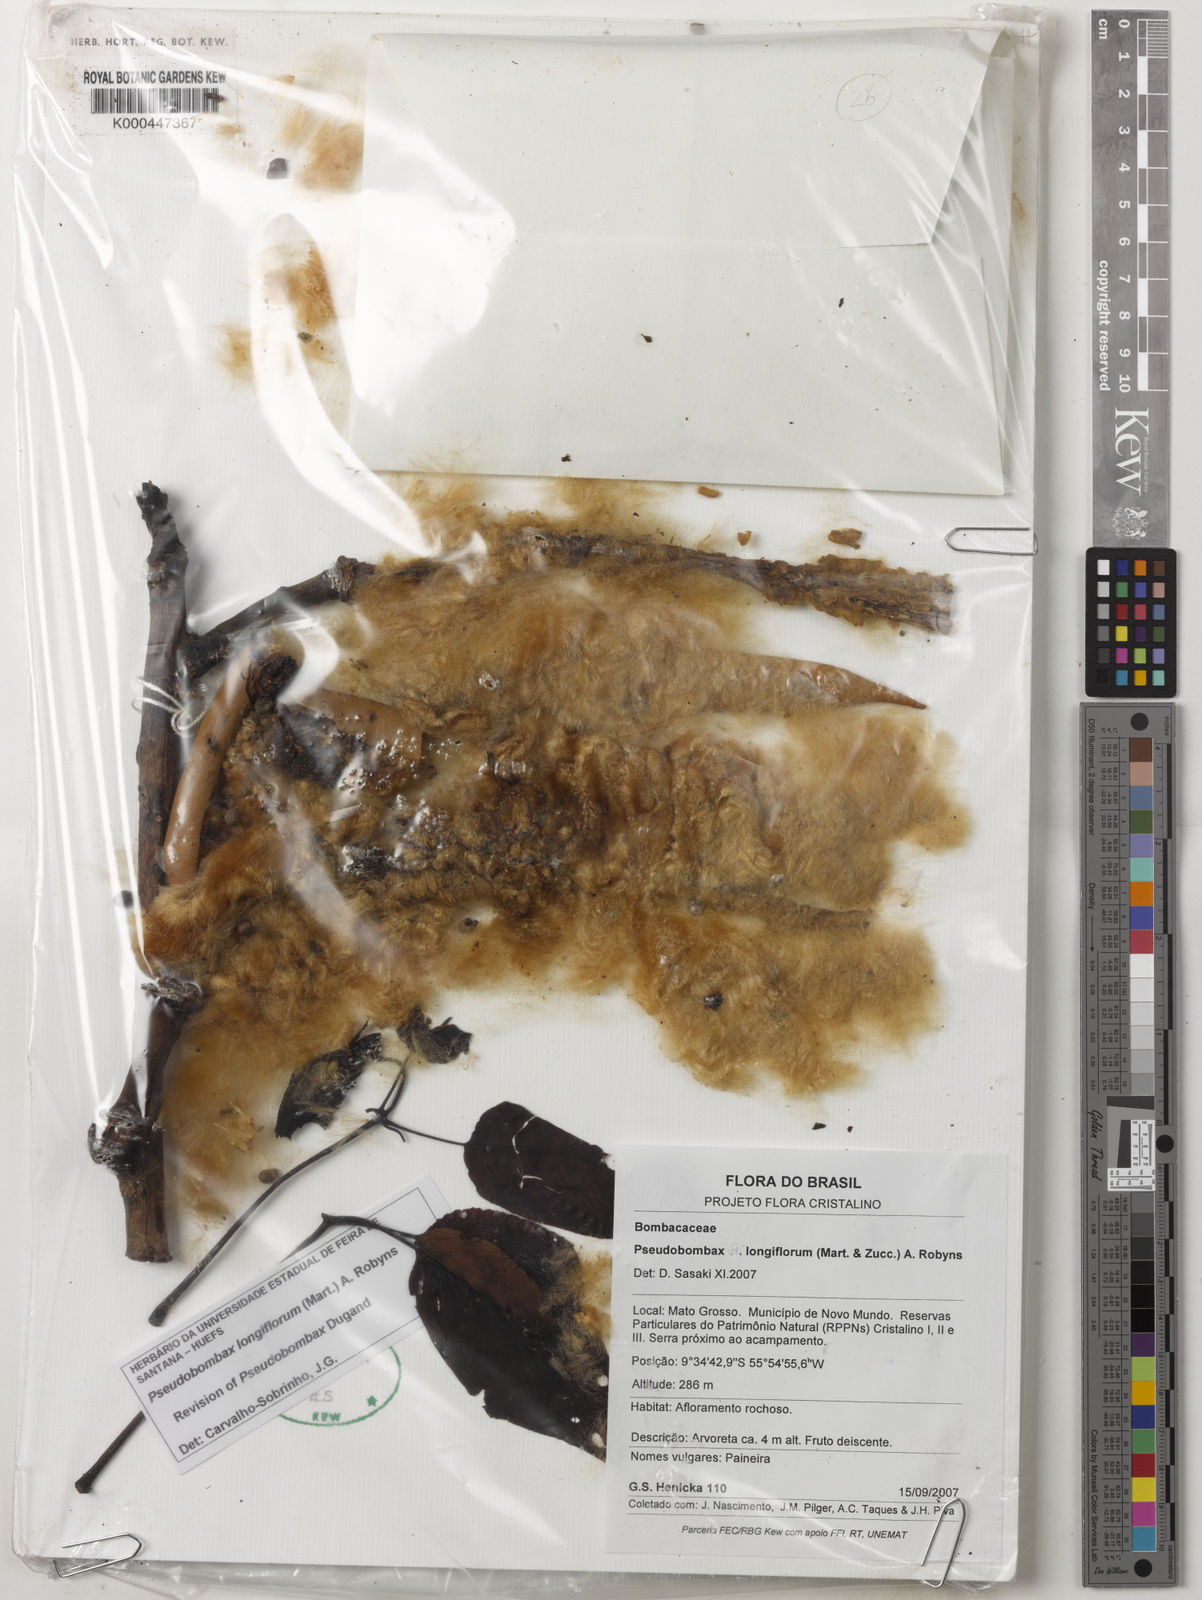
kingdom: Plantae
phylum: Tracheophyta
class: Magnoliopsida
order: Malvales
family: Malvaceae
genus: Pseudobombax
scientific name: Pseudobombax longiflorum
